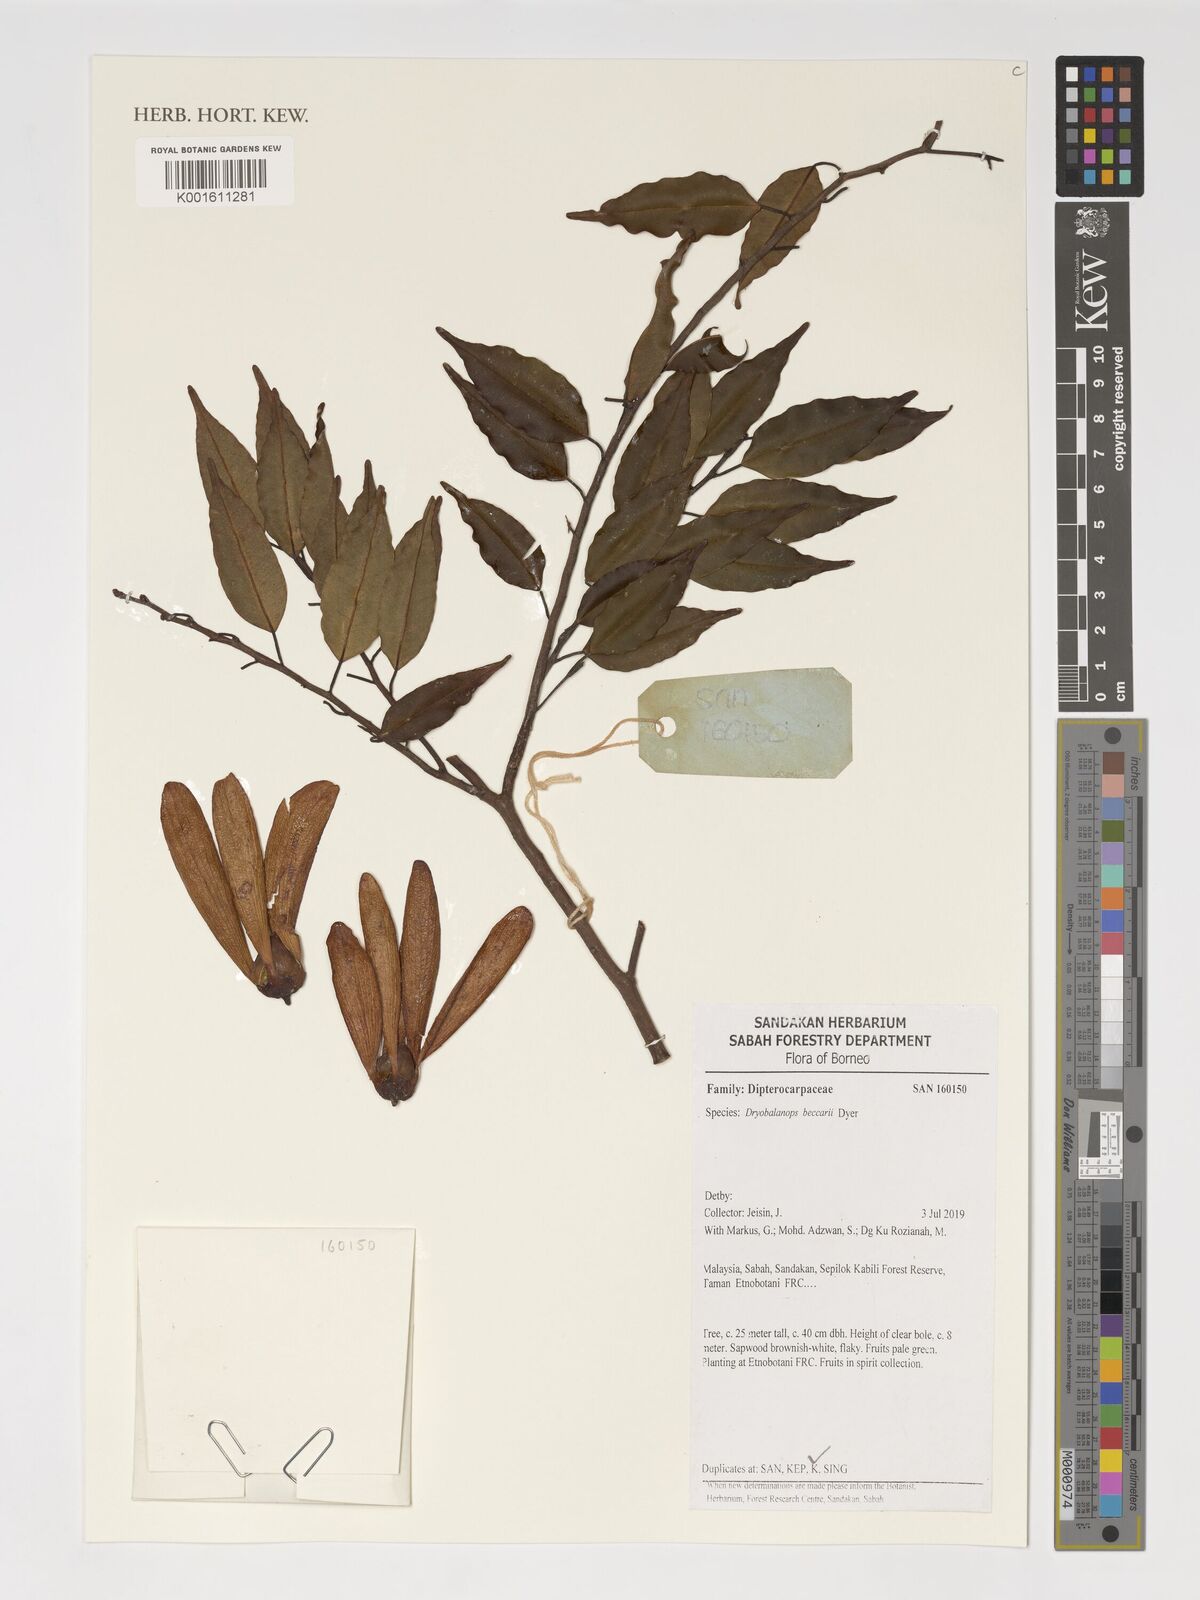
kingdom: Plantae
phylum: Tracheophyta
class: Magnoliopsida
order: Malvales
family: Dipterocarpaceae
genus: Dryobalanops
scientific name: Dryobalanops beccarii
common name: Sabah kapur
